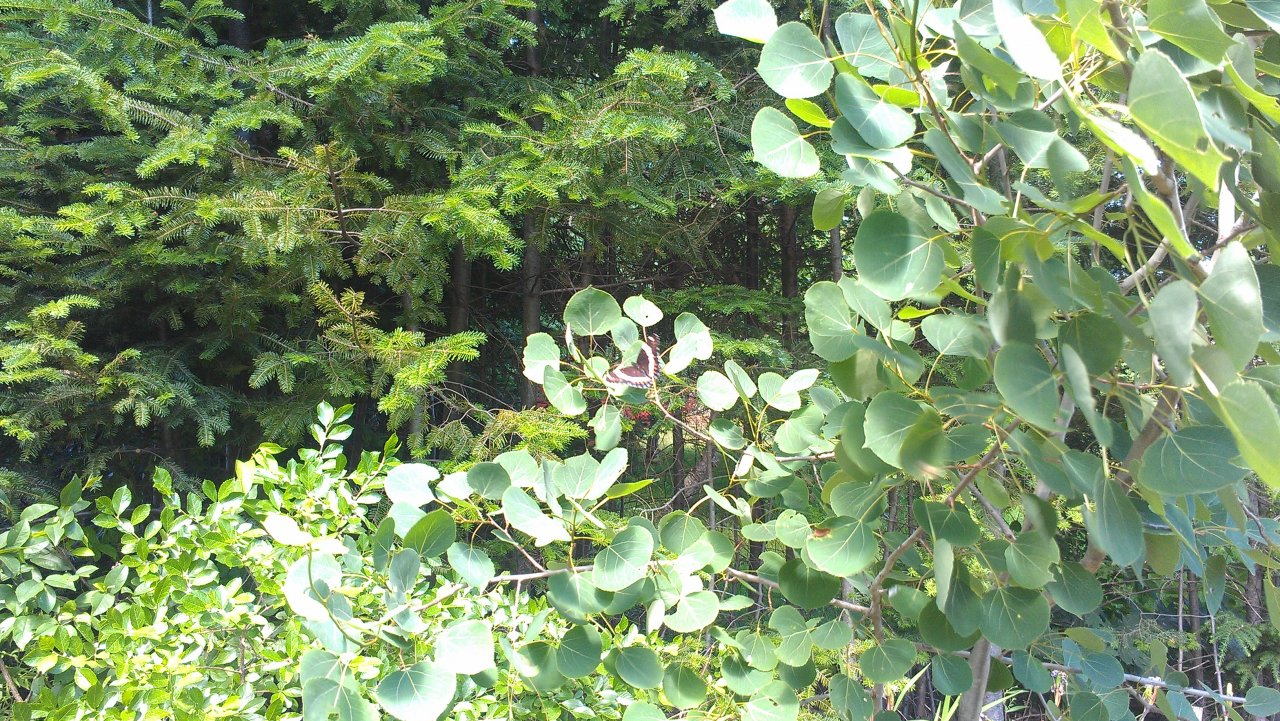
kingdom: Animalia
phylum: Arthropoda
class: Insecta
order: Lepidoptera
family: Nymphalidae
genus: Limenitis
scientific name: Limenitis arthemis
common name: Red-spotted Admiral
